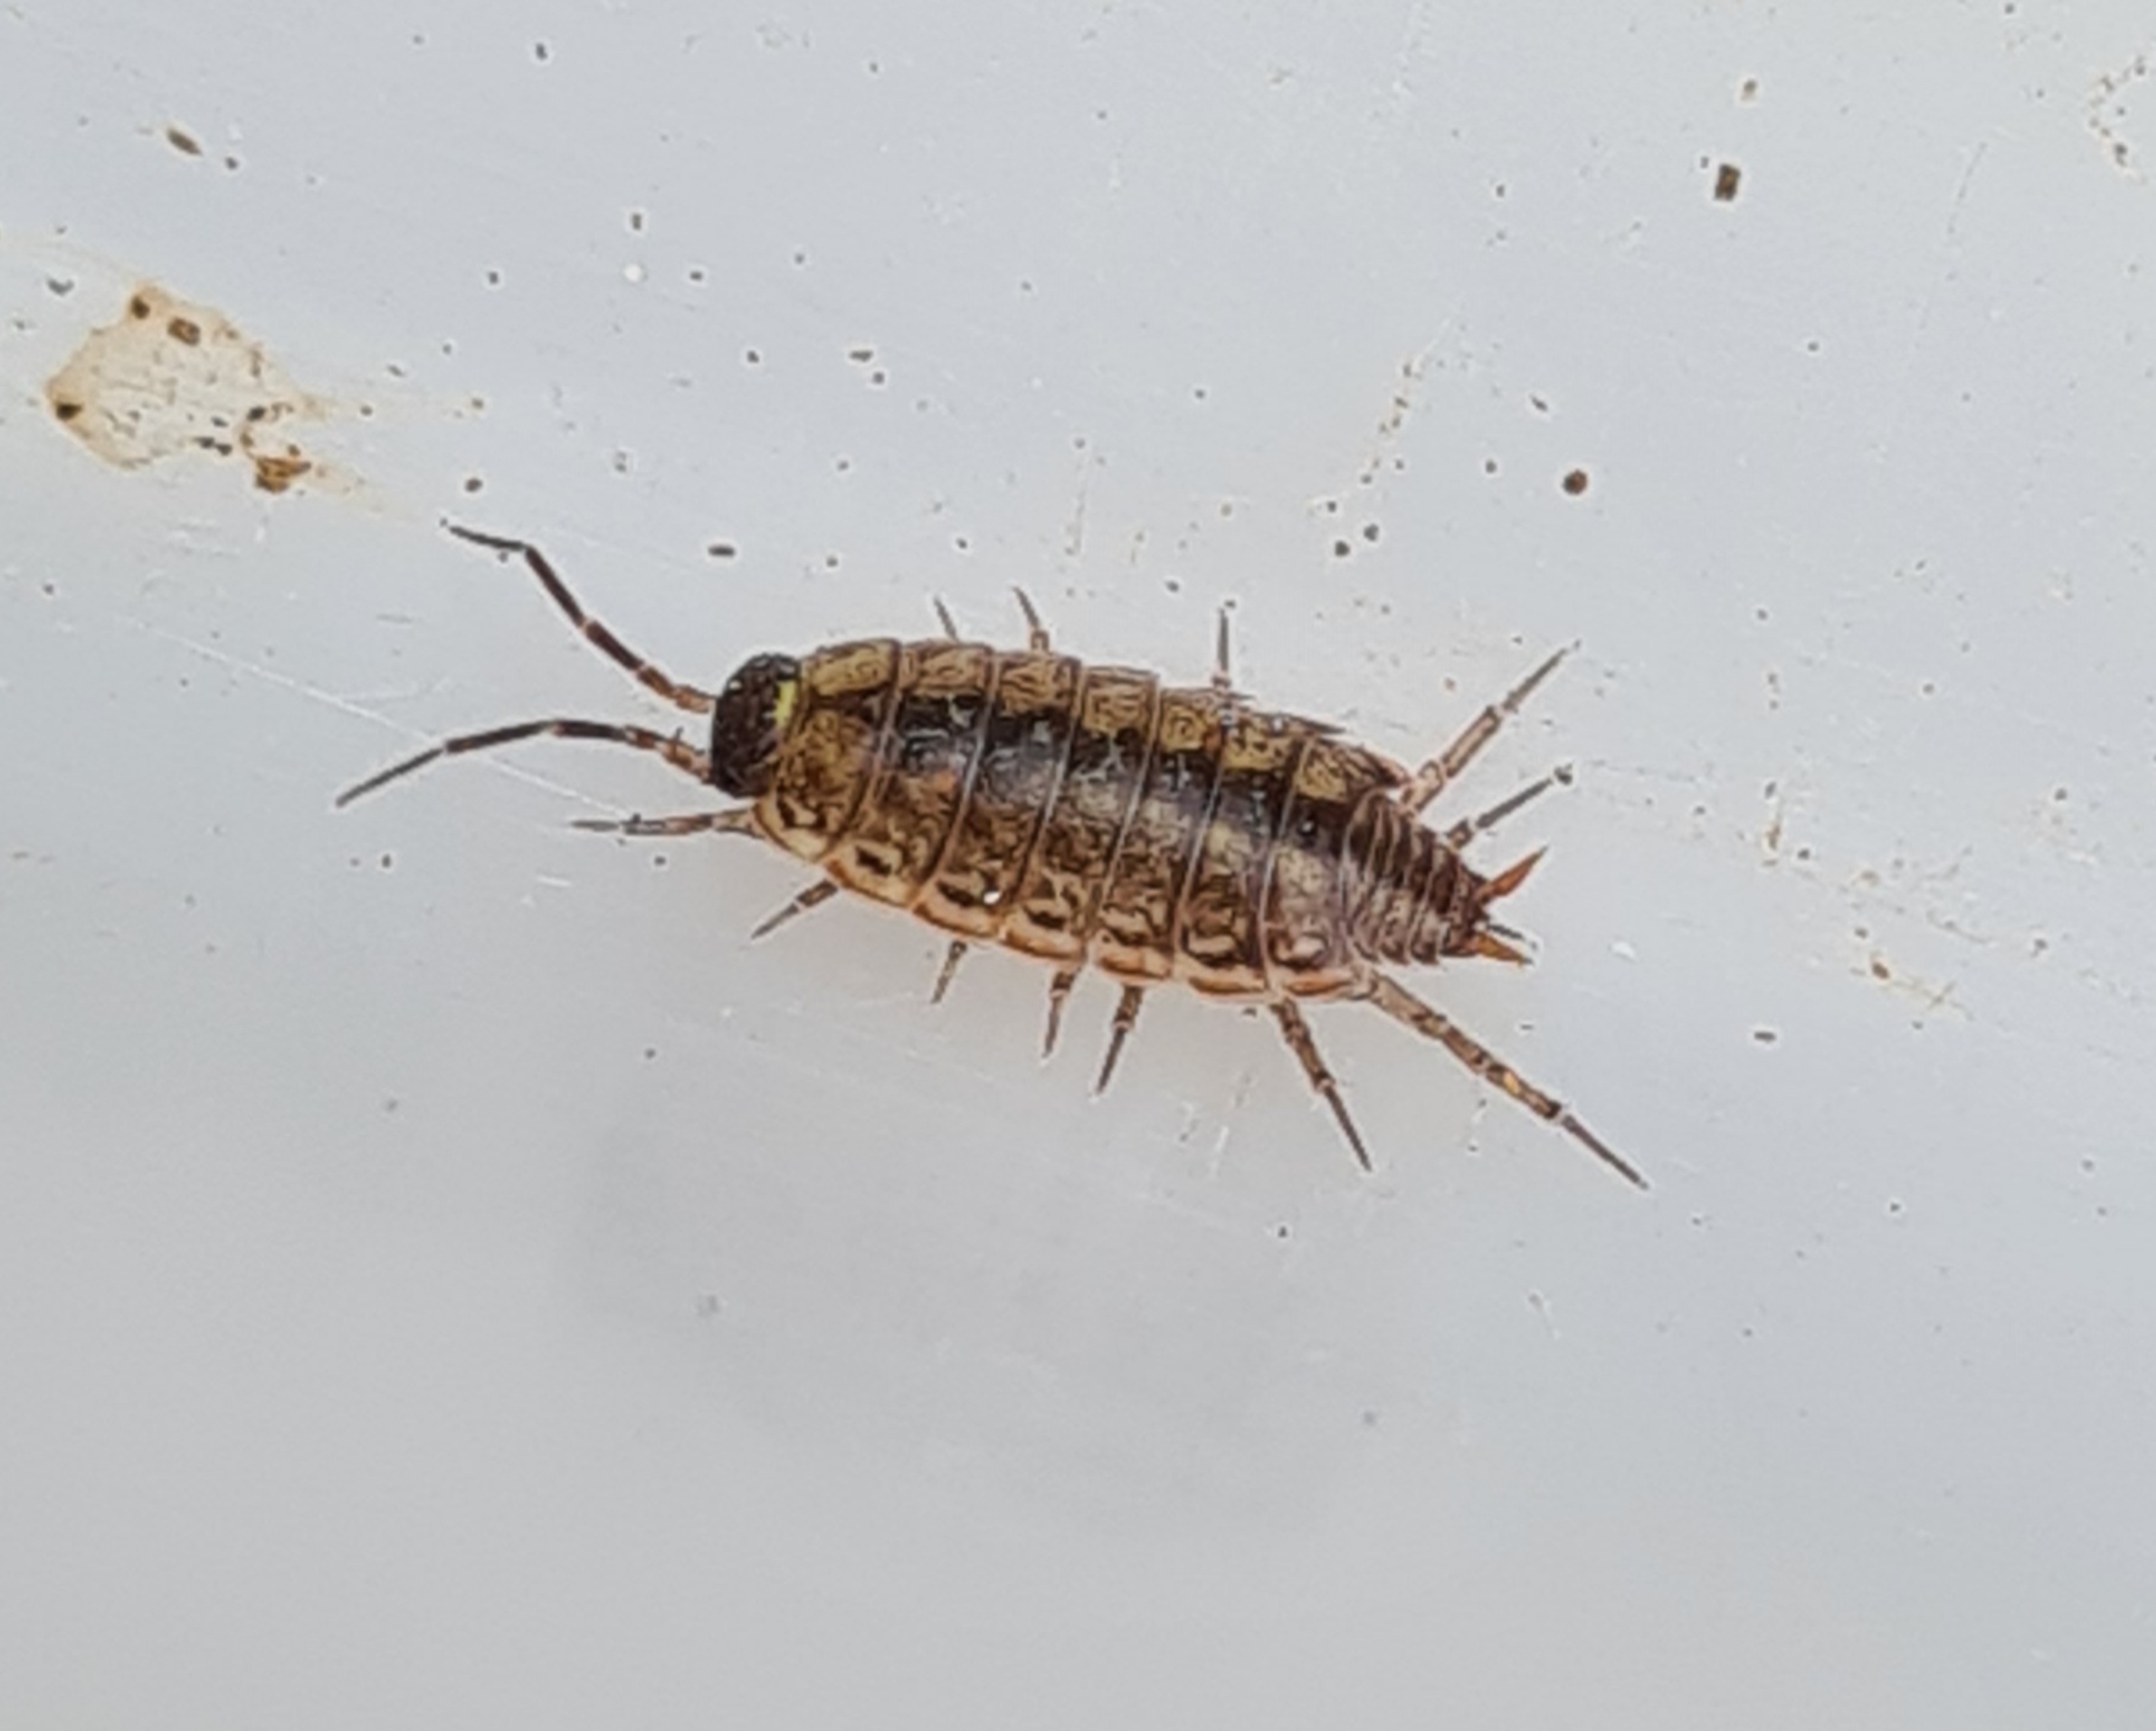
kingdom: Animalia
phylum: Arthropoda
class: Malacostraca
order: Isopoda
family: Philosciidae
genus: Philoscia
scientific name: Philoscia muscorum
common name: Langbenet bænkebider
